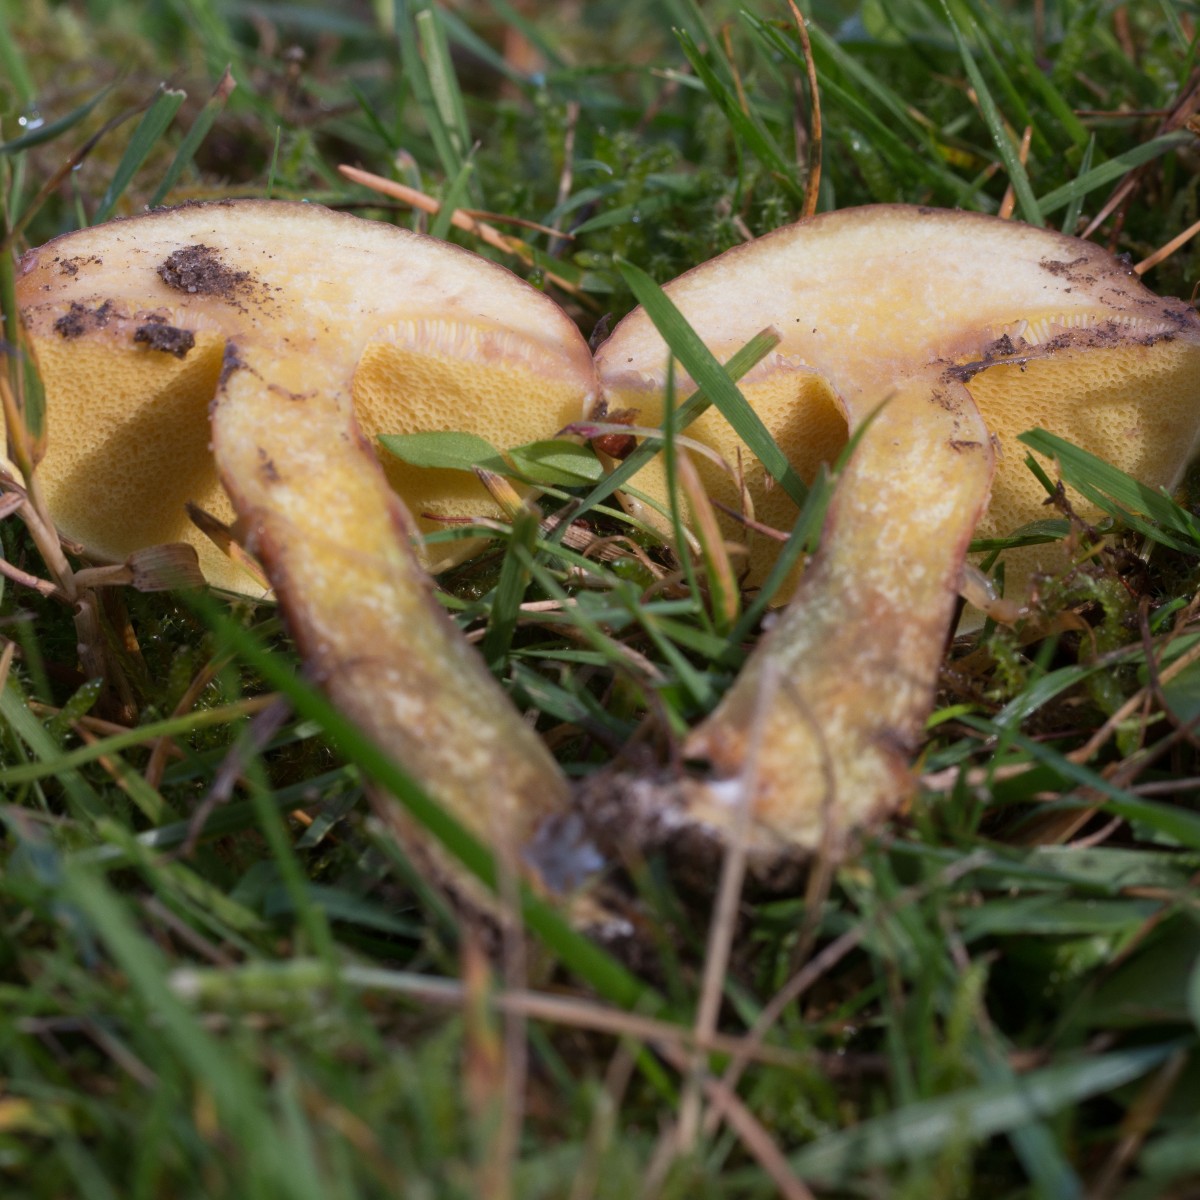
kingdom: Fungi
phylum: Basidiomycota
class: Agaricomycetes
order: Boletales
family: Suillaceae
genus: Suillus
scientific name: Suillus grevillei
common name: lærke-slimrørhat
